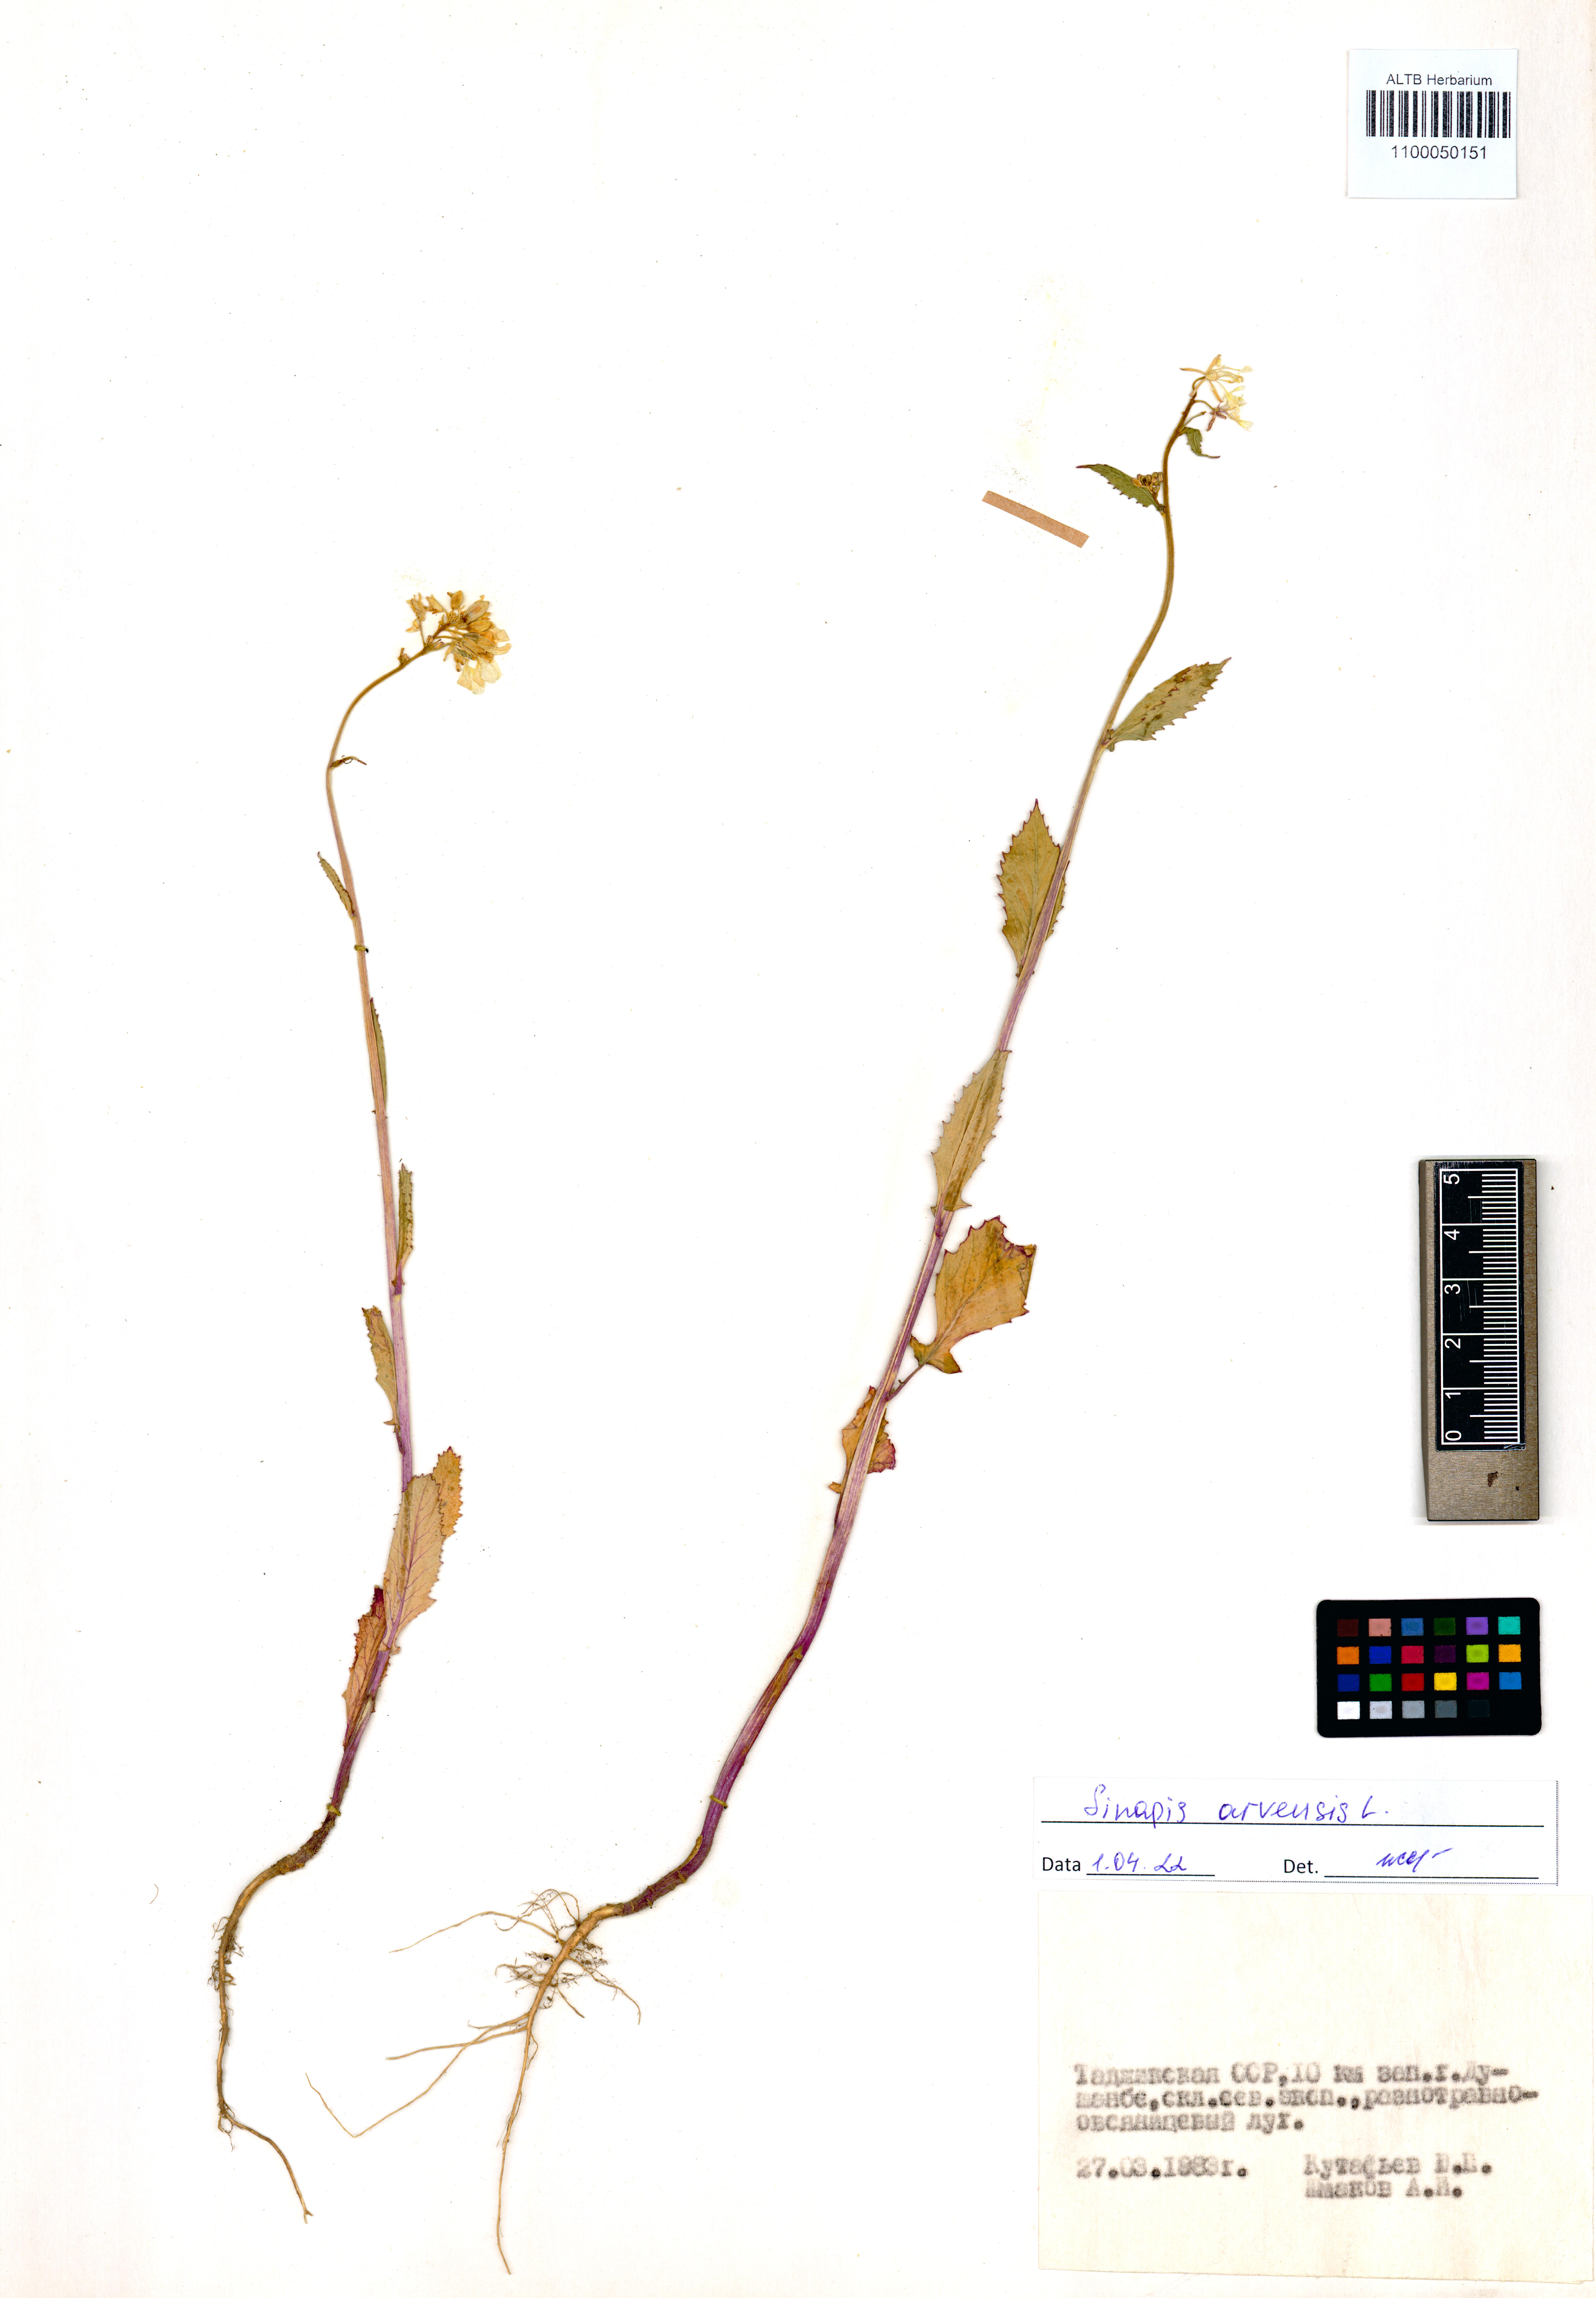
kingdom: Plantae
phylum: Tracheophyta
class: Magnoliopsida
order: Brassicales
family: Brassicaceae
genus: Sinapis
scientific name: Sinapis arvensis
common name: Charlock
